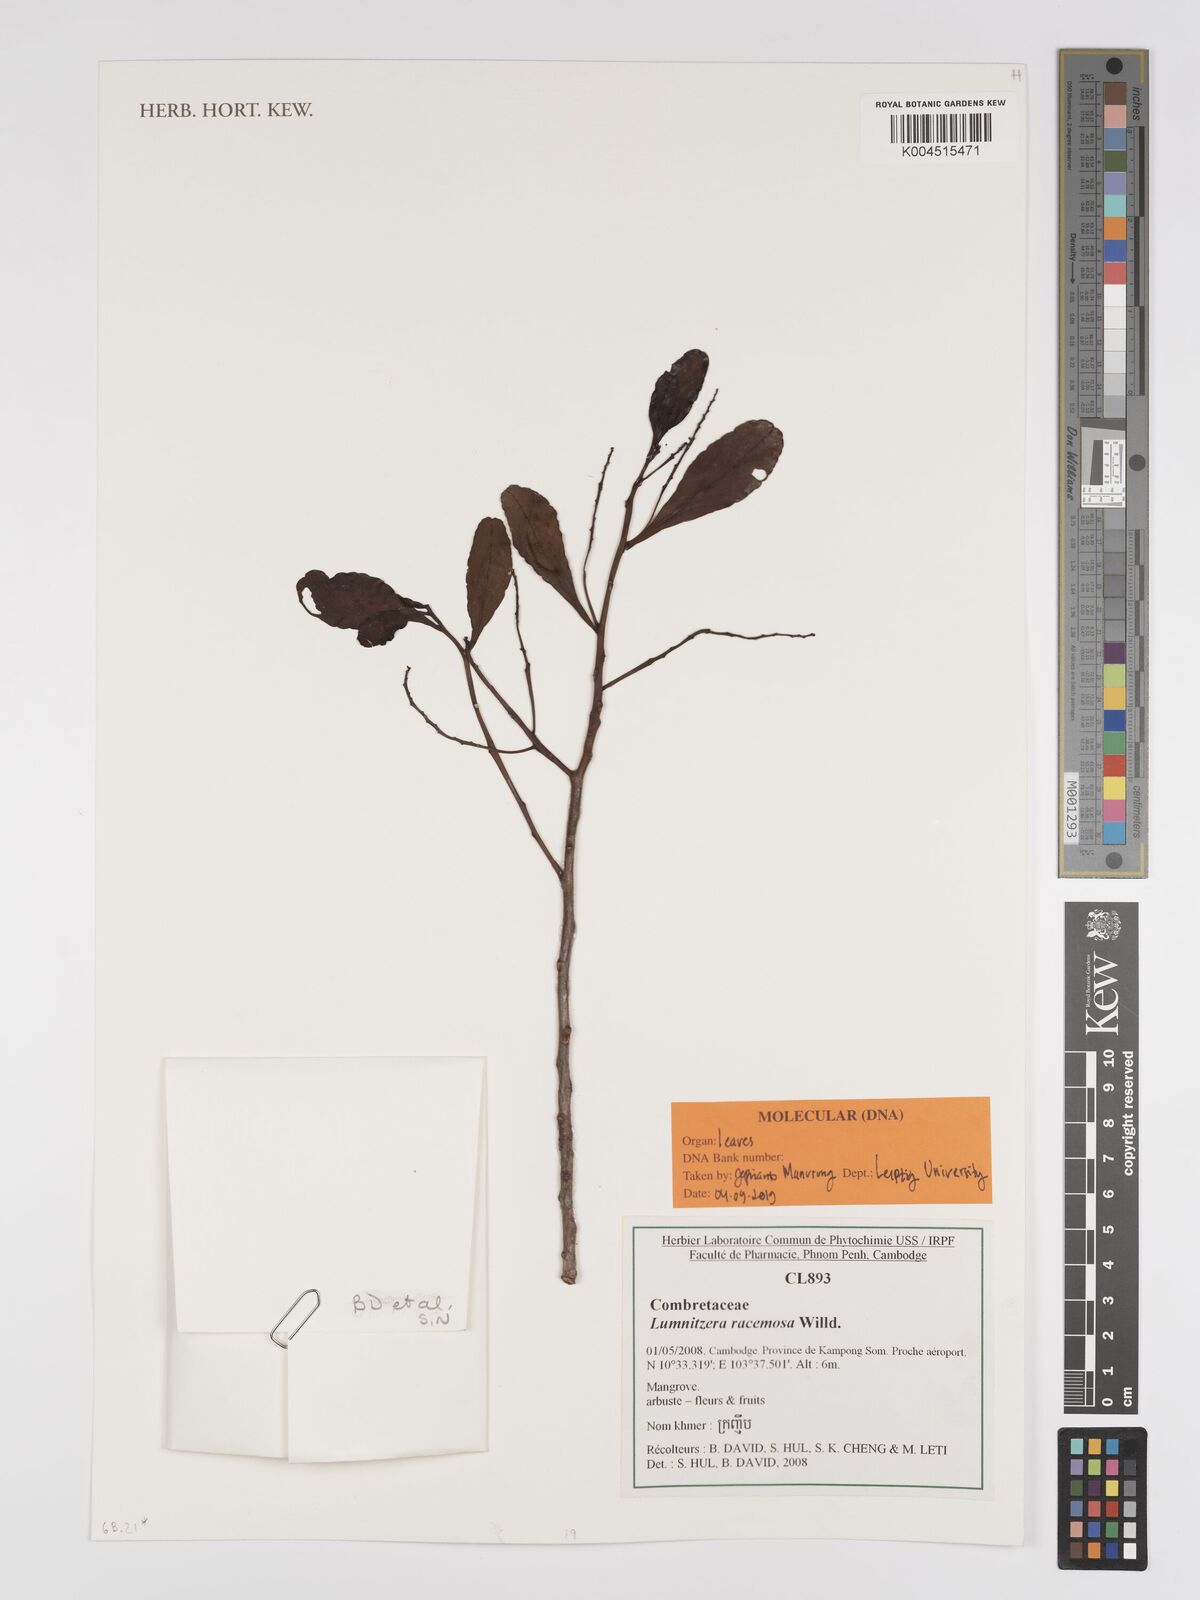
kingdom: Plantae
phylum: Tracheophyta
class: Magnoliopsida
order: Myrtales
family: Combretaceae
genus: Lumnitzera
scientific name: Lumnitzera racemosa
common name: White-flowered black mangrove
